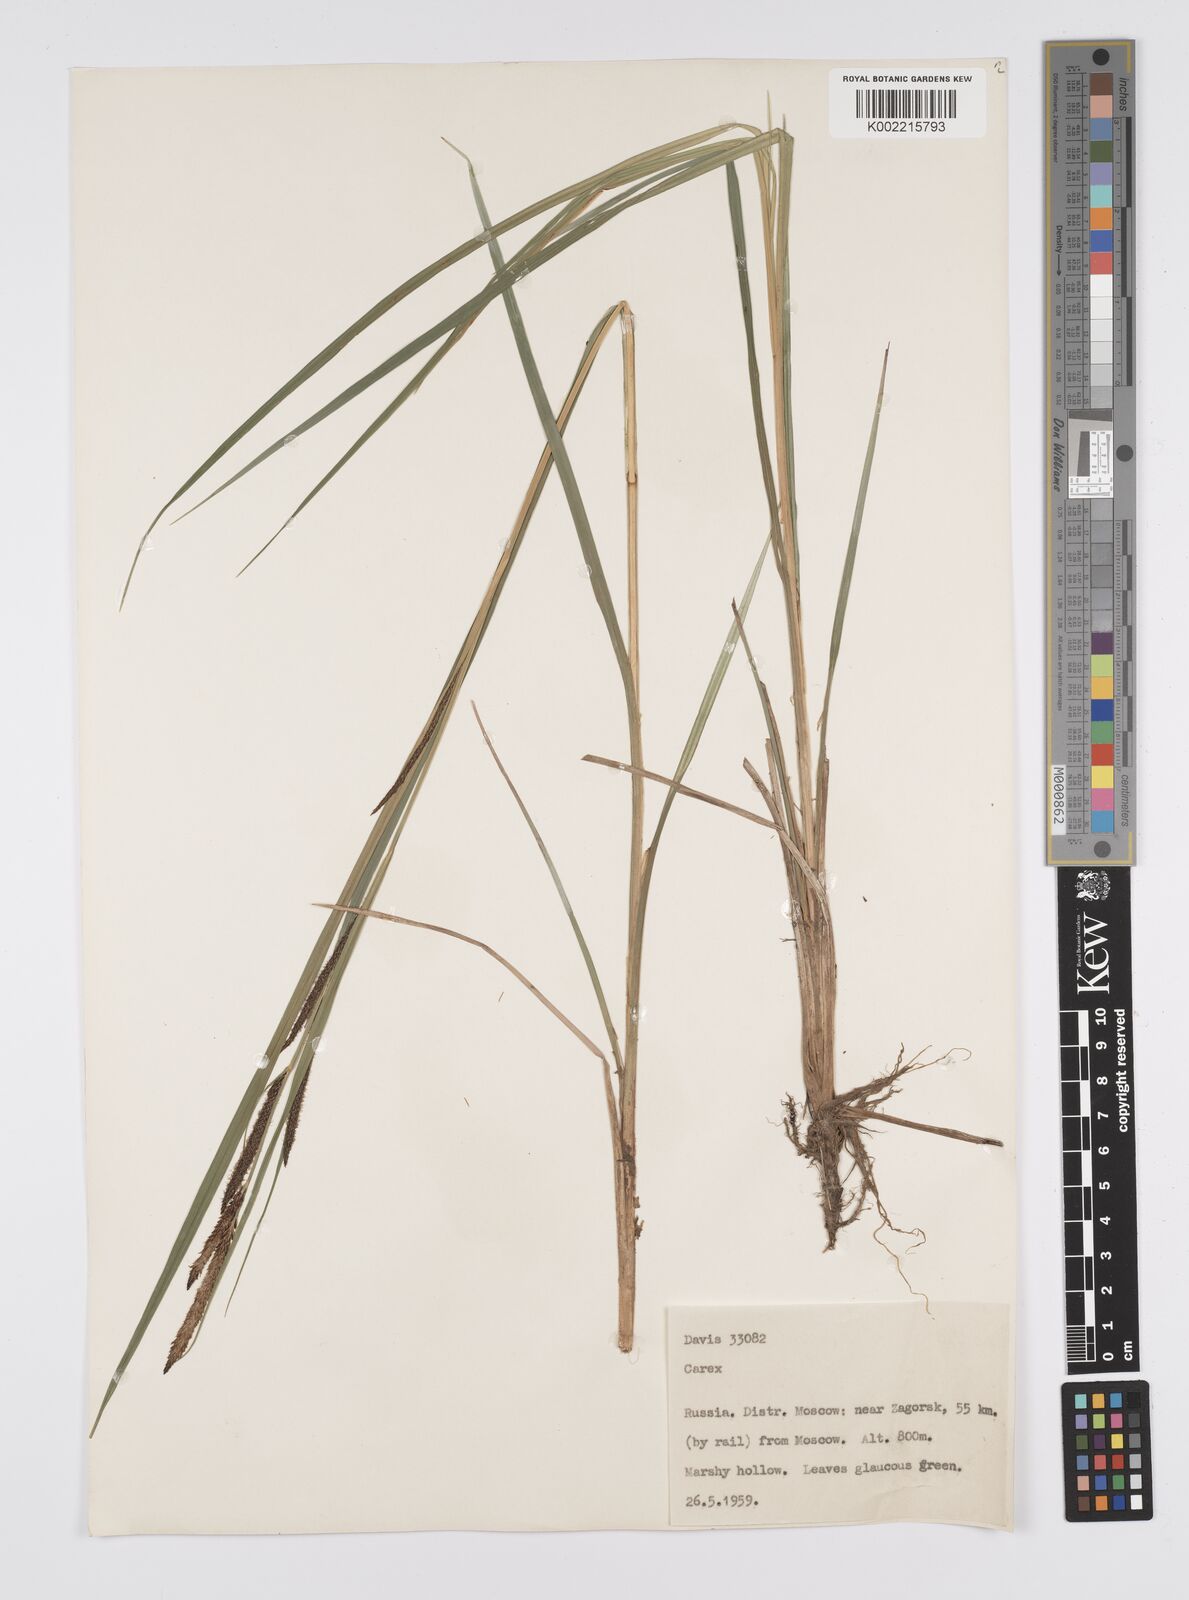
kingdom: Plantae
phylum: Tracheophyta
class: Liliopsida
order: Poales
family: Cyperaceae
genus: Carex
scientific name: Carex
